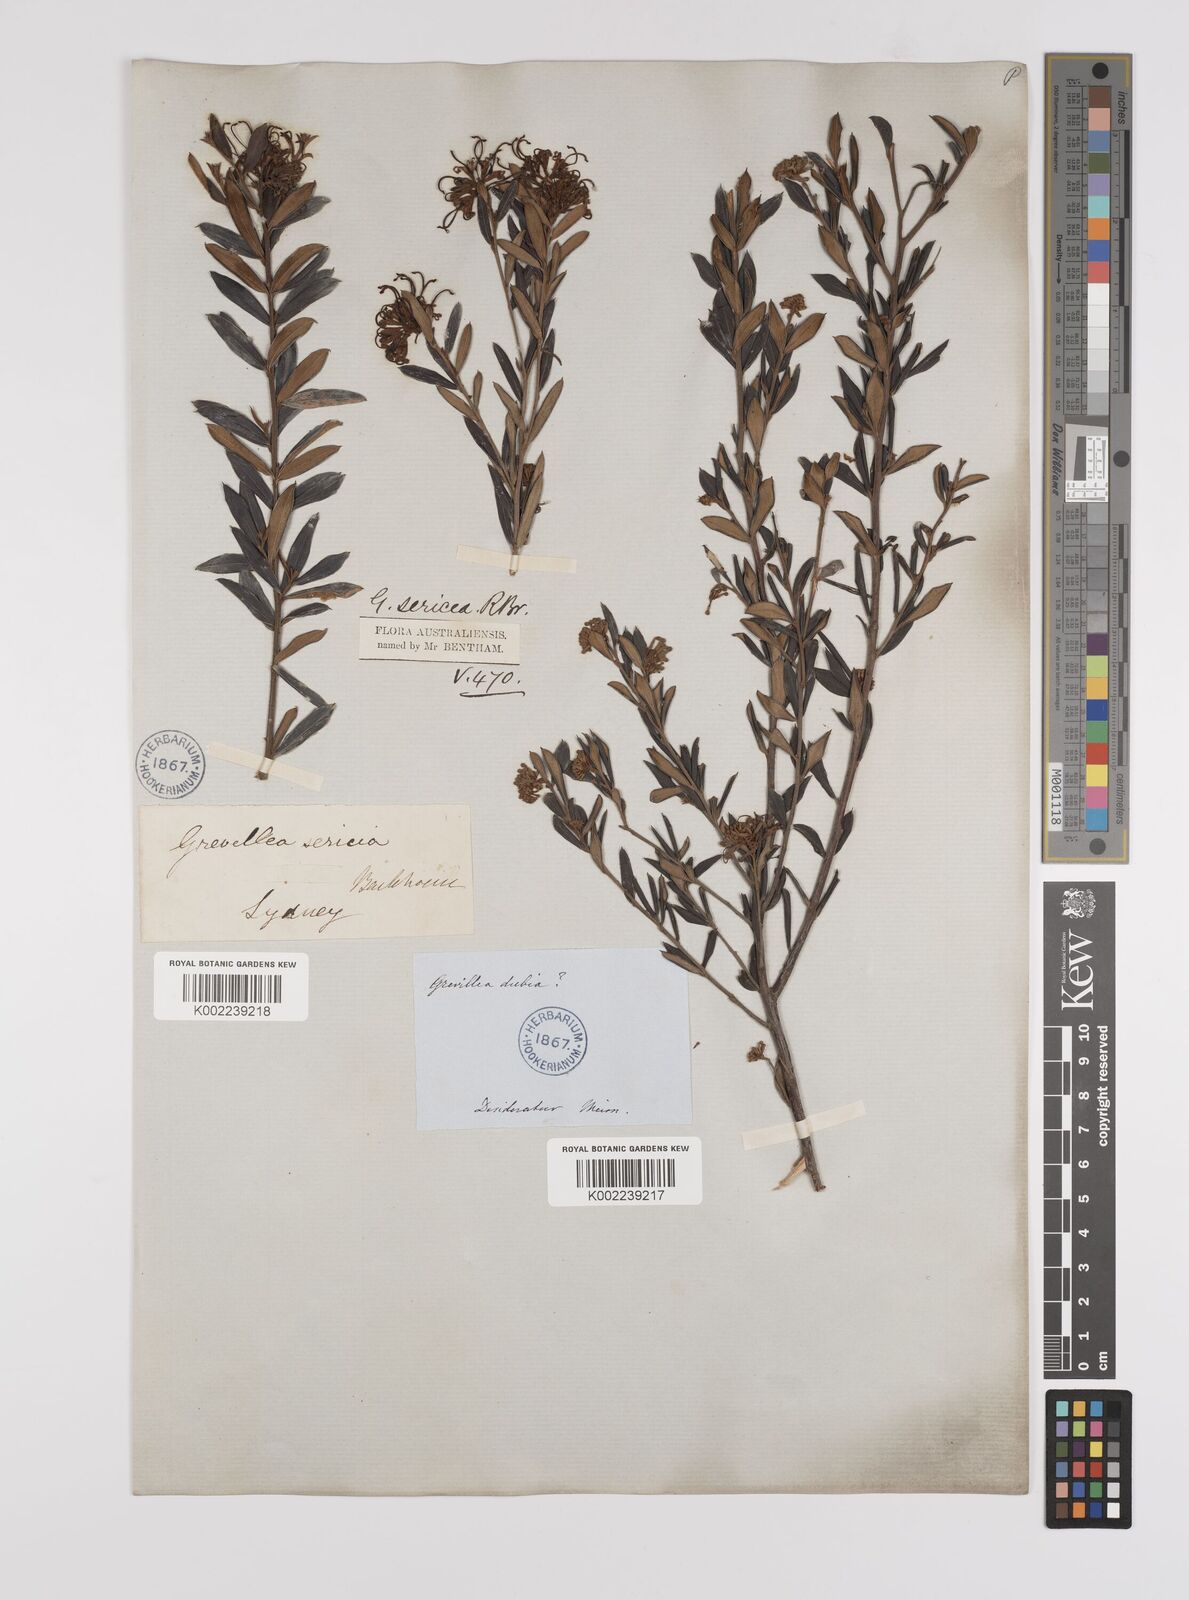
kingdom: Plantae
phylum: Tracheophyta
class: Magnoliopsida
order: Proteales
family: Proteaceae
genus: Grevillea
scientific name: Grevillea sericea
